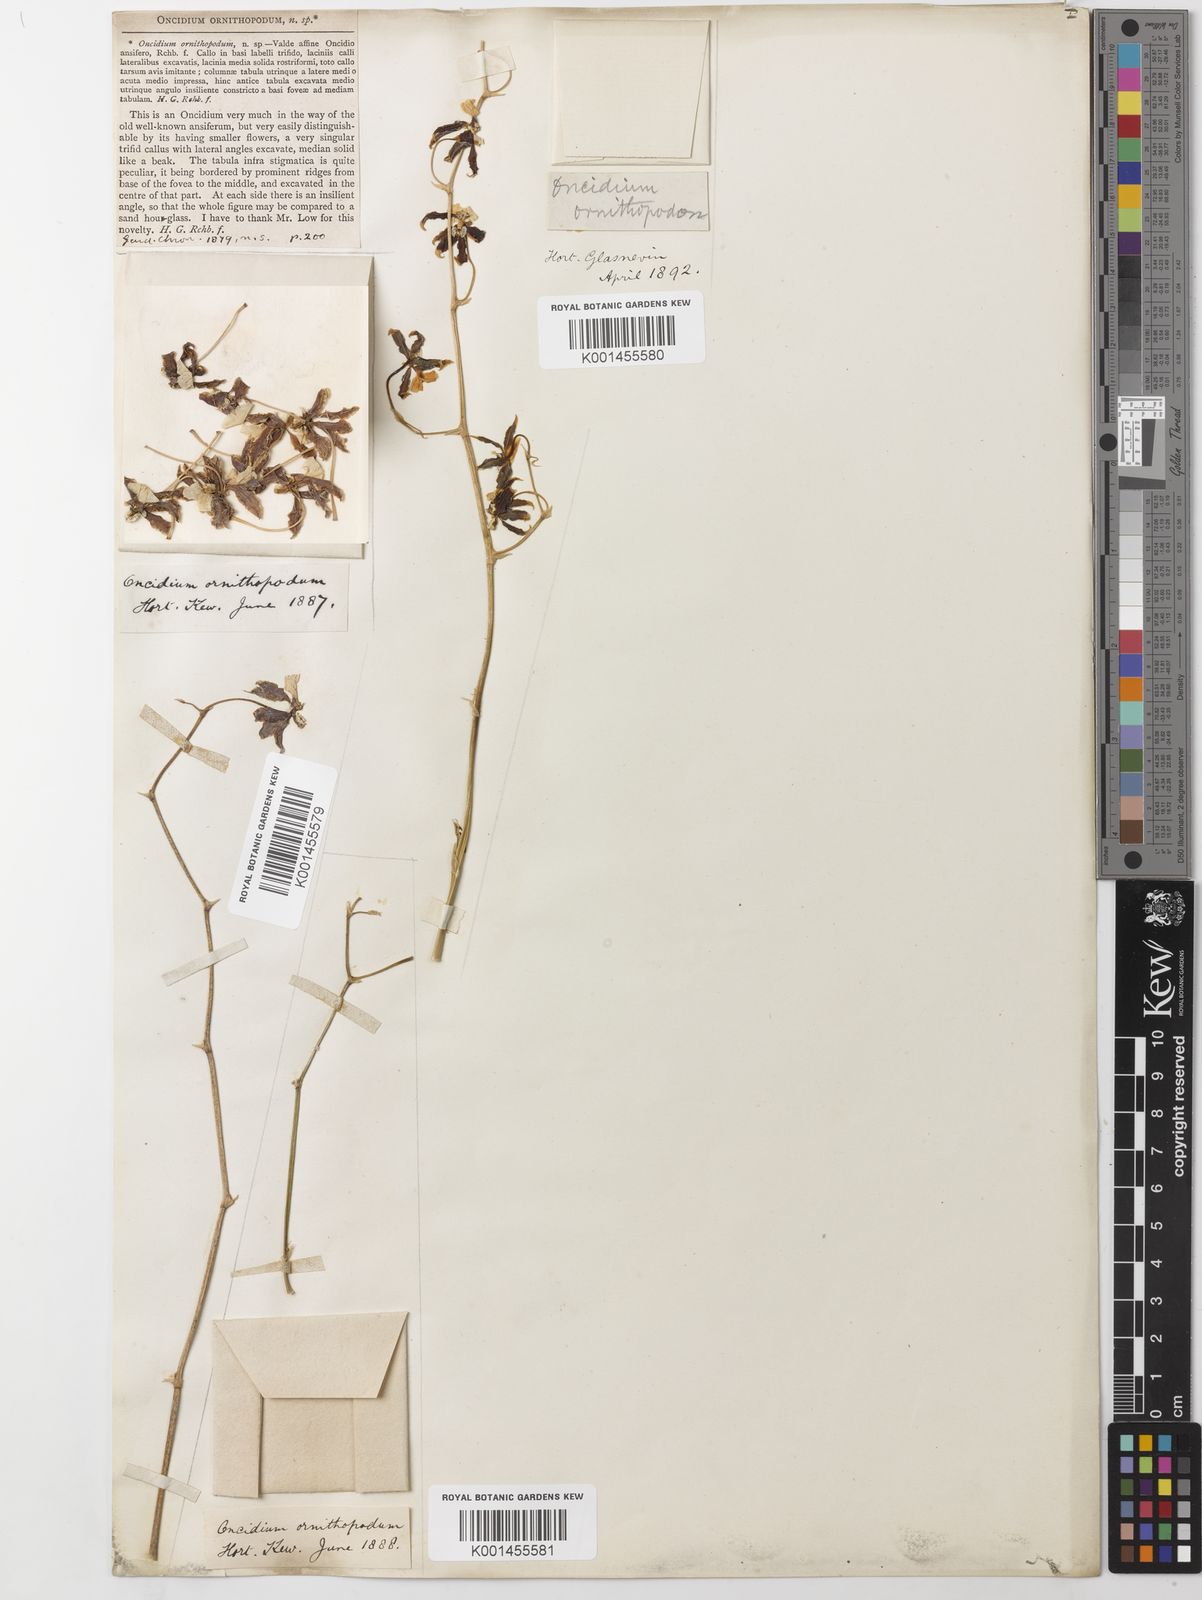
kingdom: Plantae
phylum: Tracheophyta
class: Liliopsida
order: Asparagales
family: Orchidaceae
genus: Oncidium
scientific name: Oncidium ornithopodum
